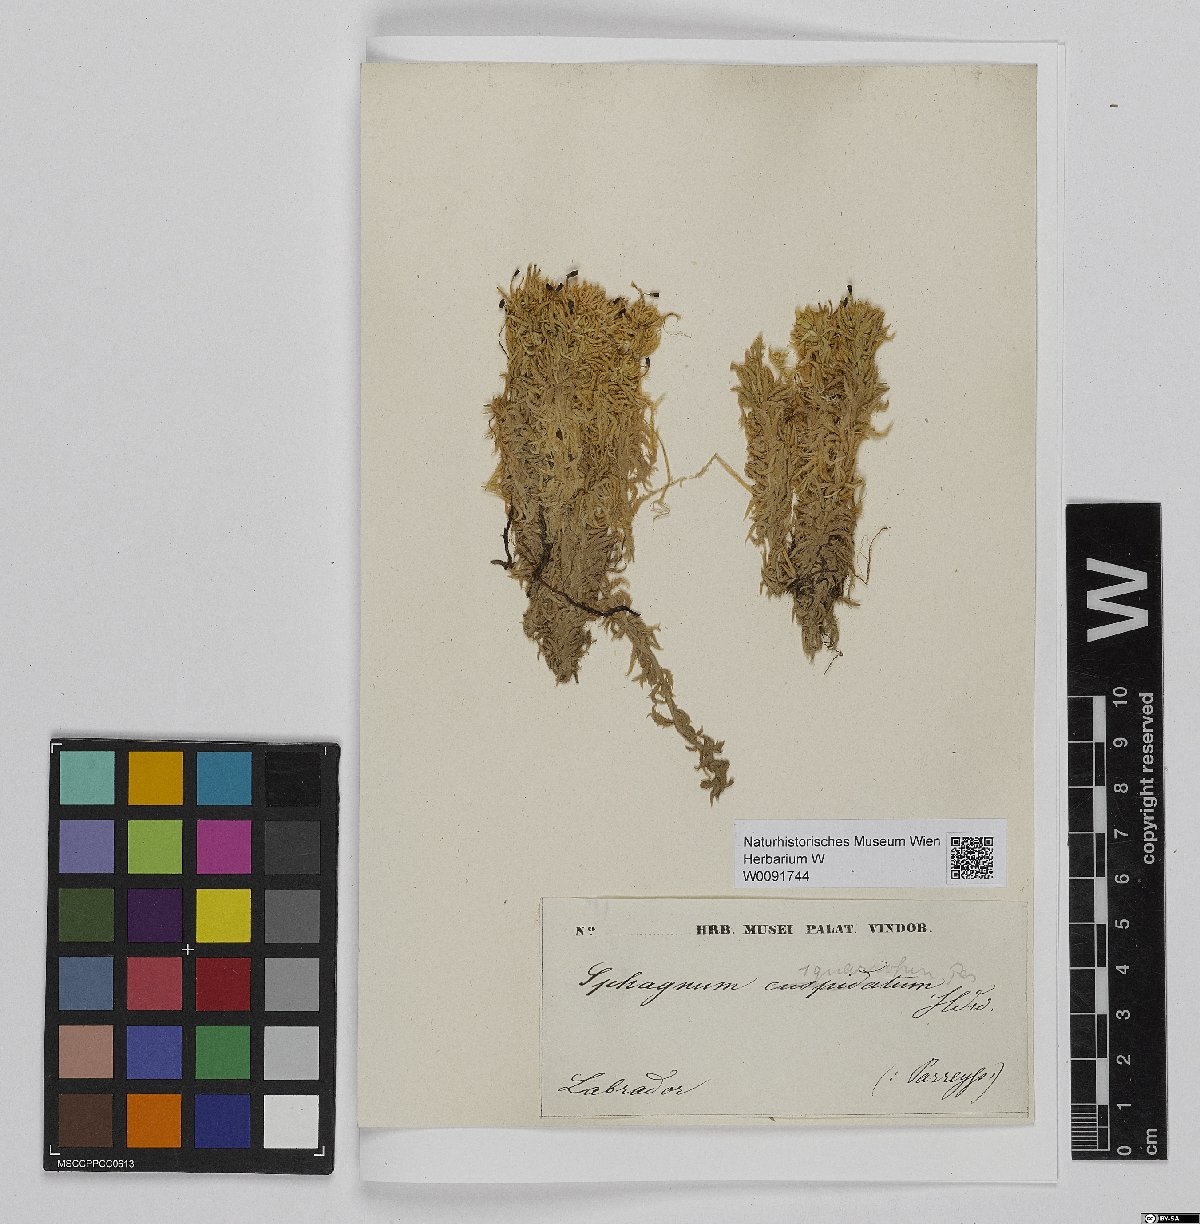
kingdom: Plantae
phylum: Bryophyta
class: Sphagnopsida
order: Sphagnales
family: Sphagnaceae
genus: Sphagnum
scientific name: Sphagnum squarrosum
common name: Shaggy peat moss
